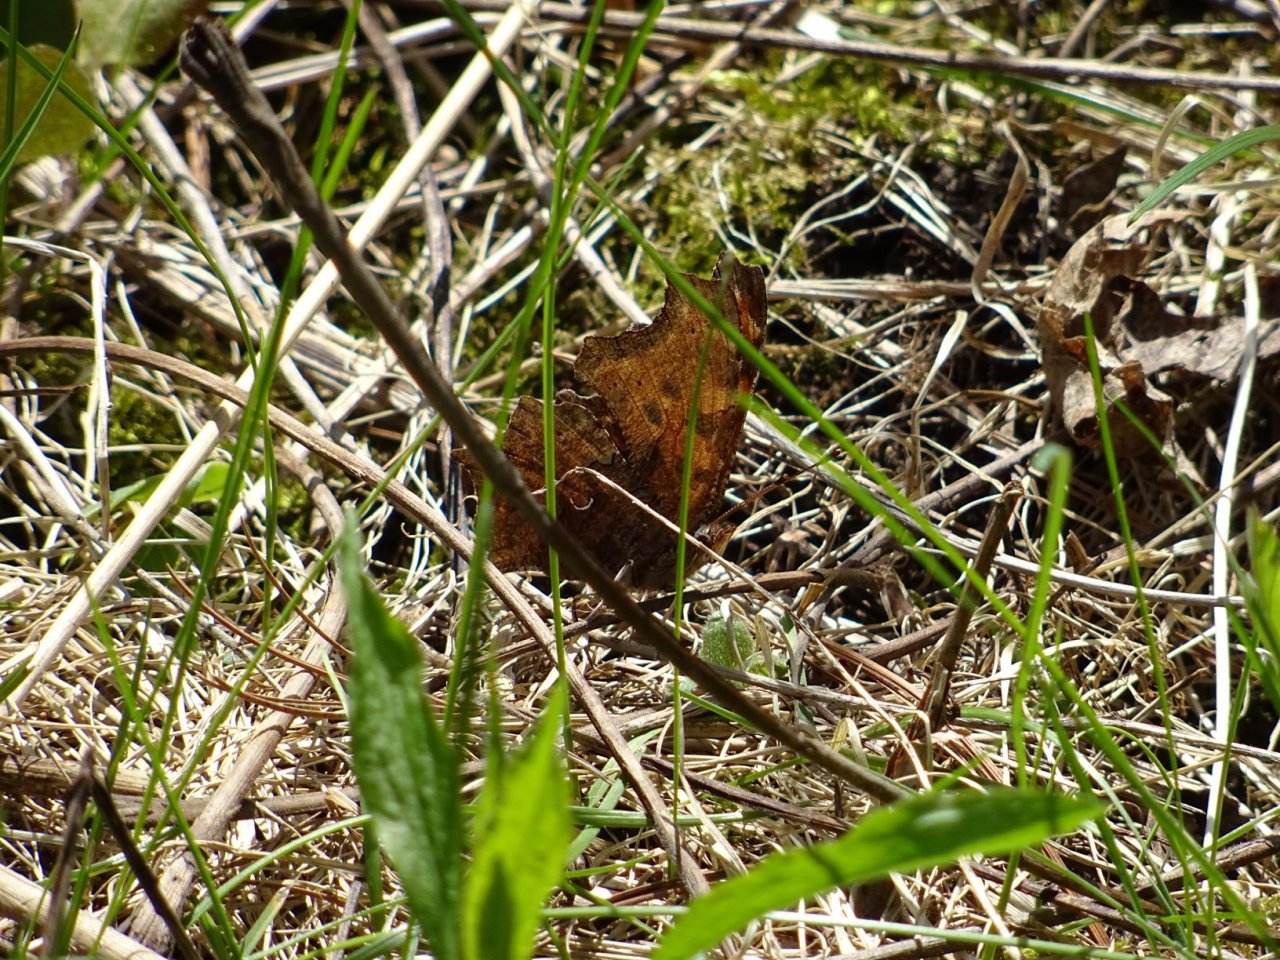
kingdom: Animalia
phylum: Arthropoda
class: Insecta
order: Lepidoptera
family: Nymphalidae
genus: Polygonia
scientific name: Polygonia comma
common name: Eastern Comma
